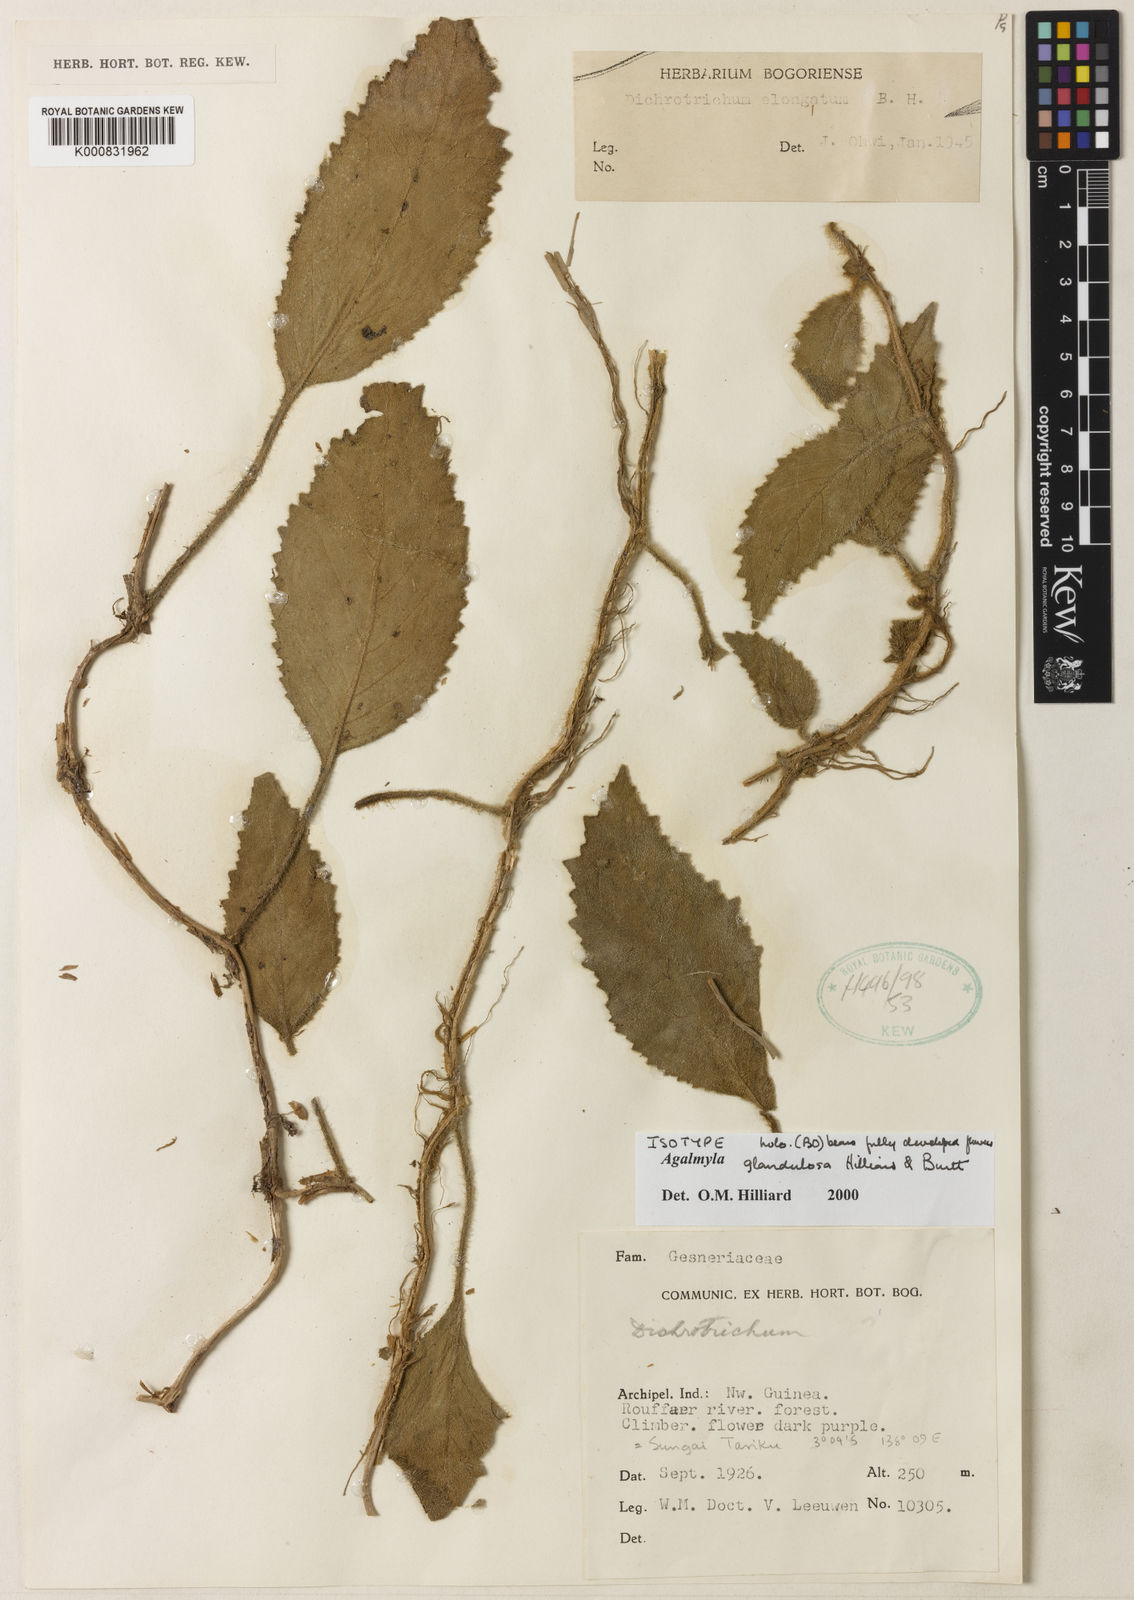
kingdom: Plantae
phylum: Tracheophyta
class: Magnoliopsida
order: Lamiales
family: Gesneriaceae
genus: Agalmyla
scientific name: Agalmyla glandulosa
